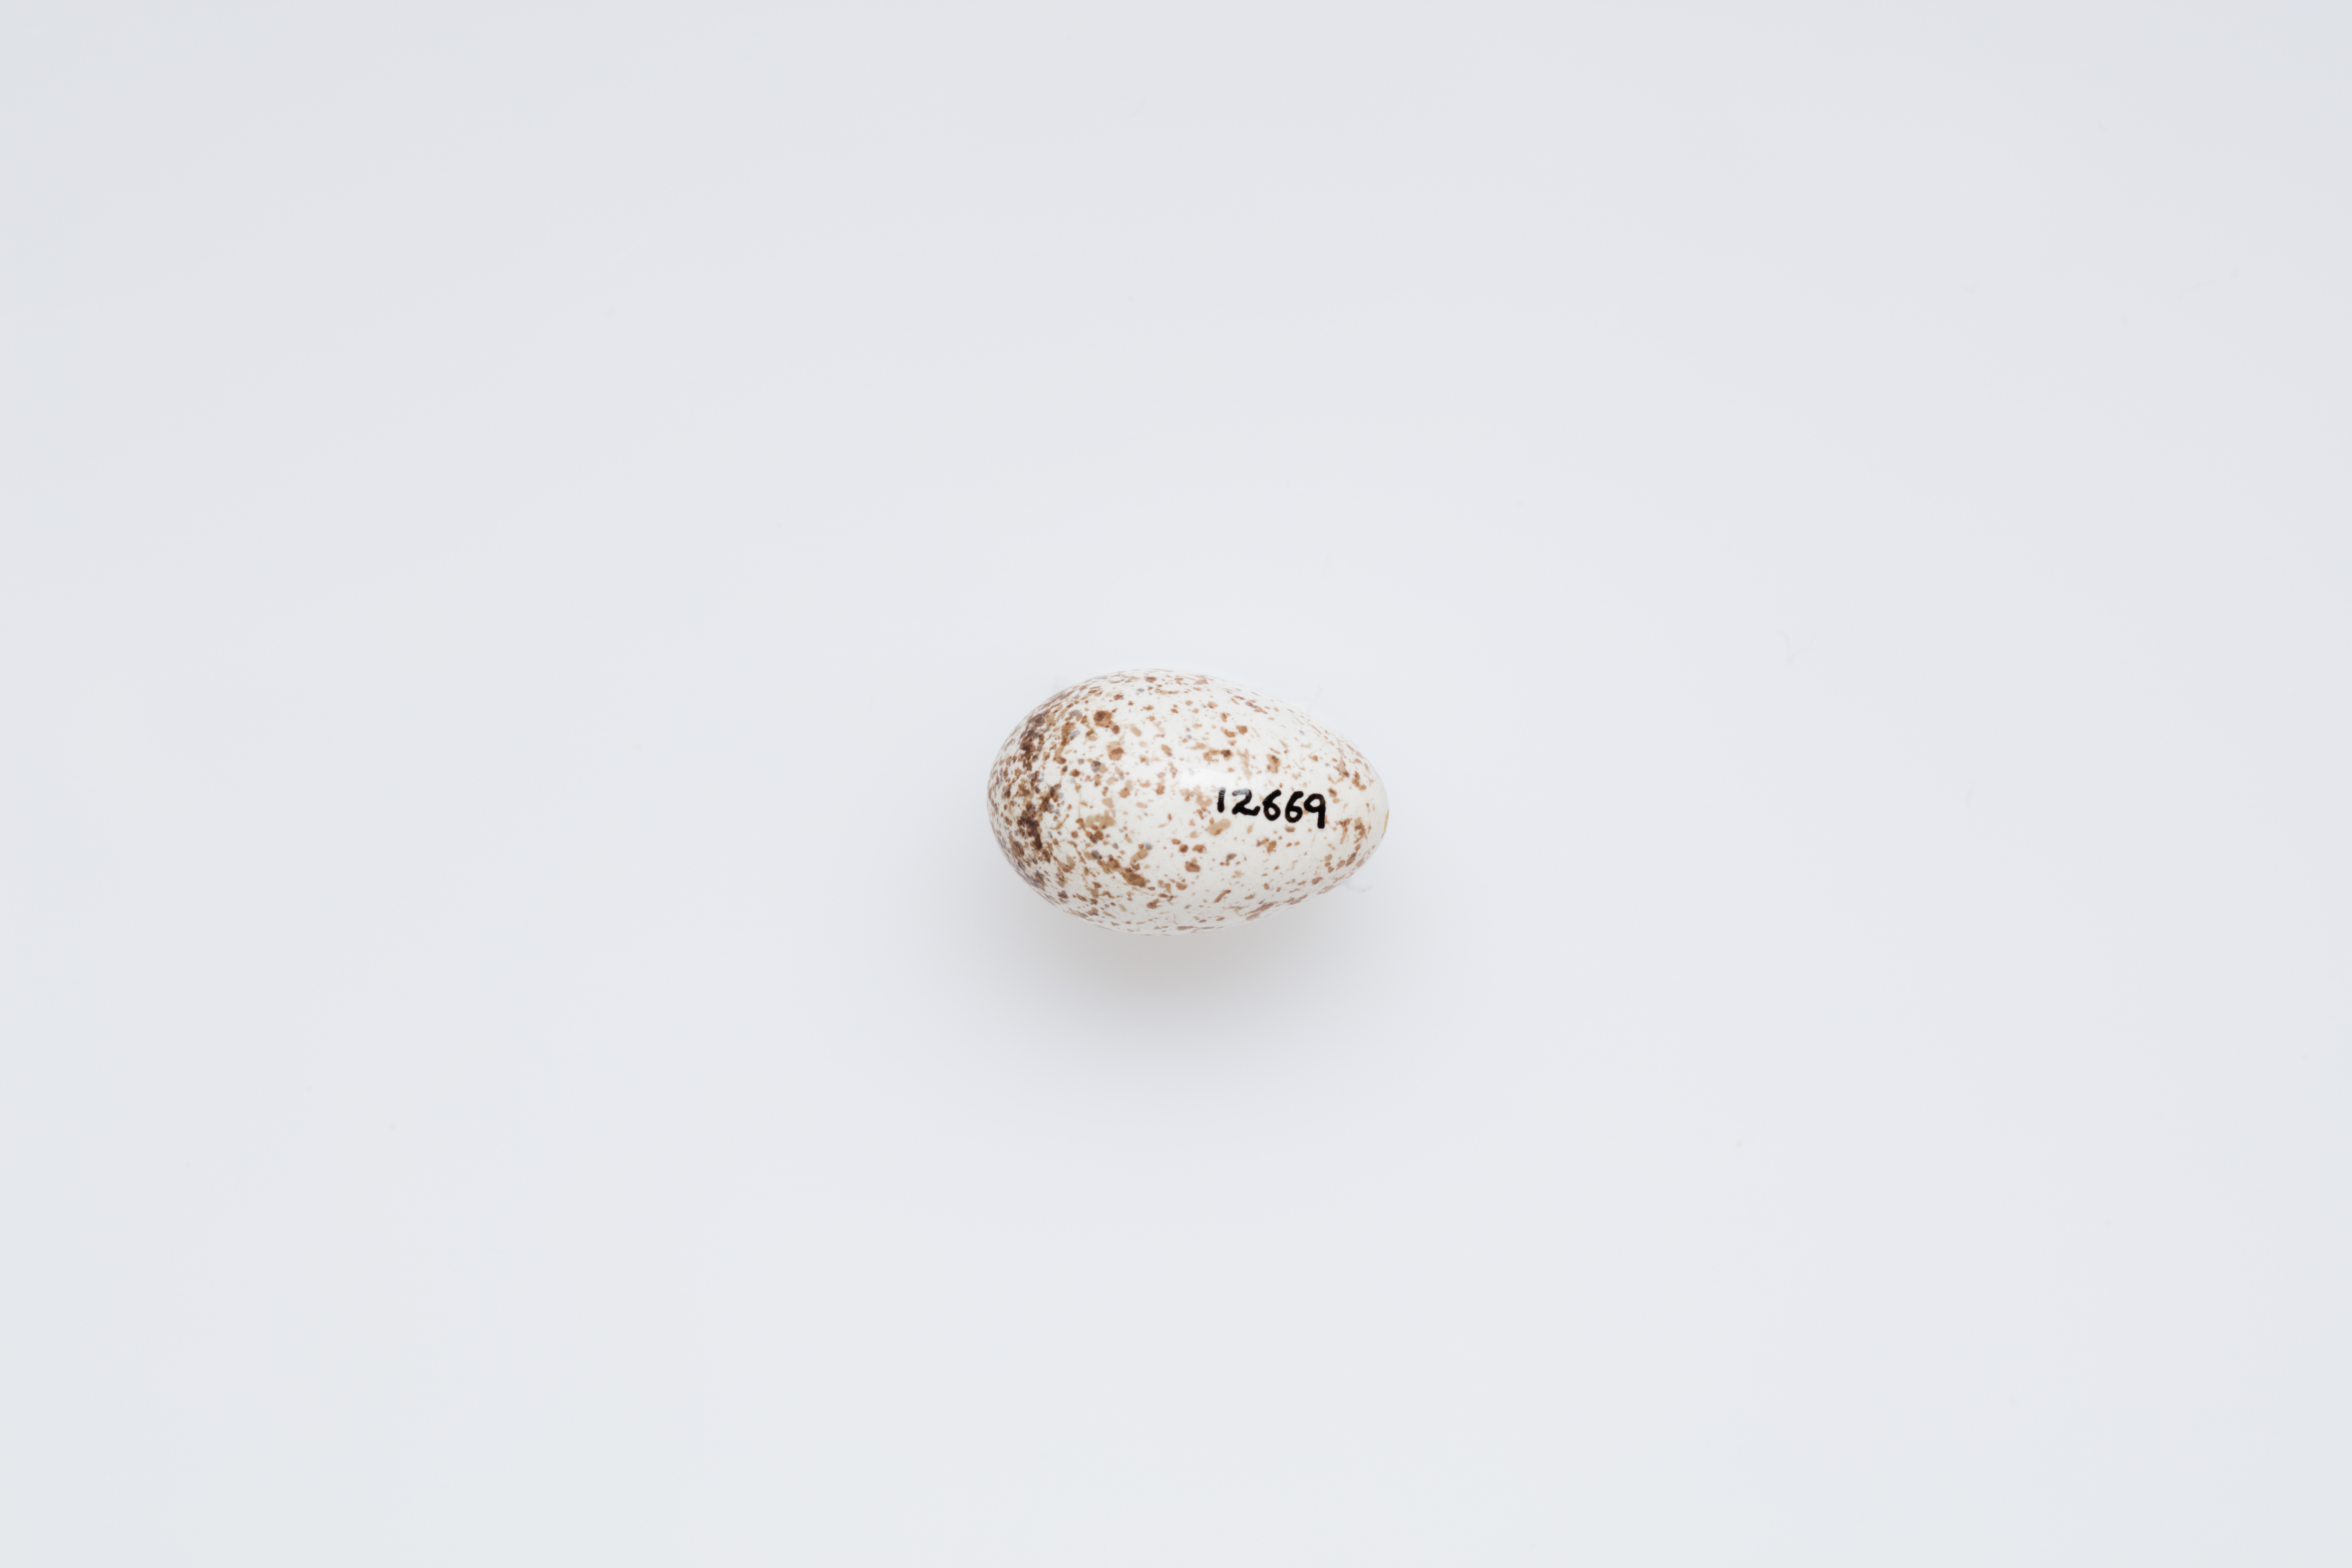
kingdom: Animalia
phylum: Chordata
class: Aves
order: Passeriformes
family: Meliphagidae
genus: Epthianura
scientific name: Epthianura aurifrons
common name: Orange chat
